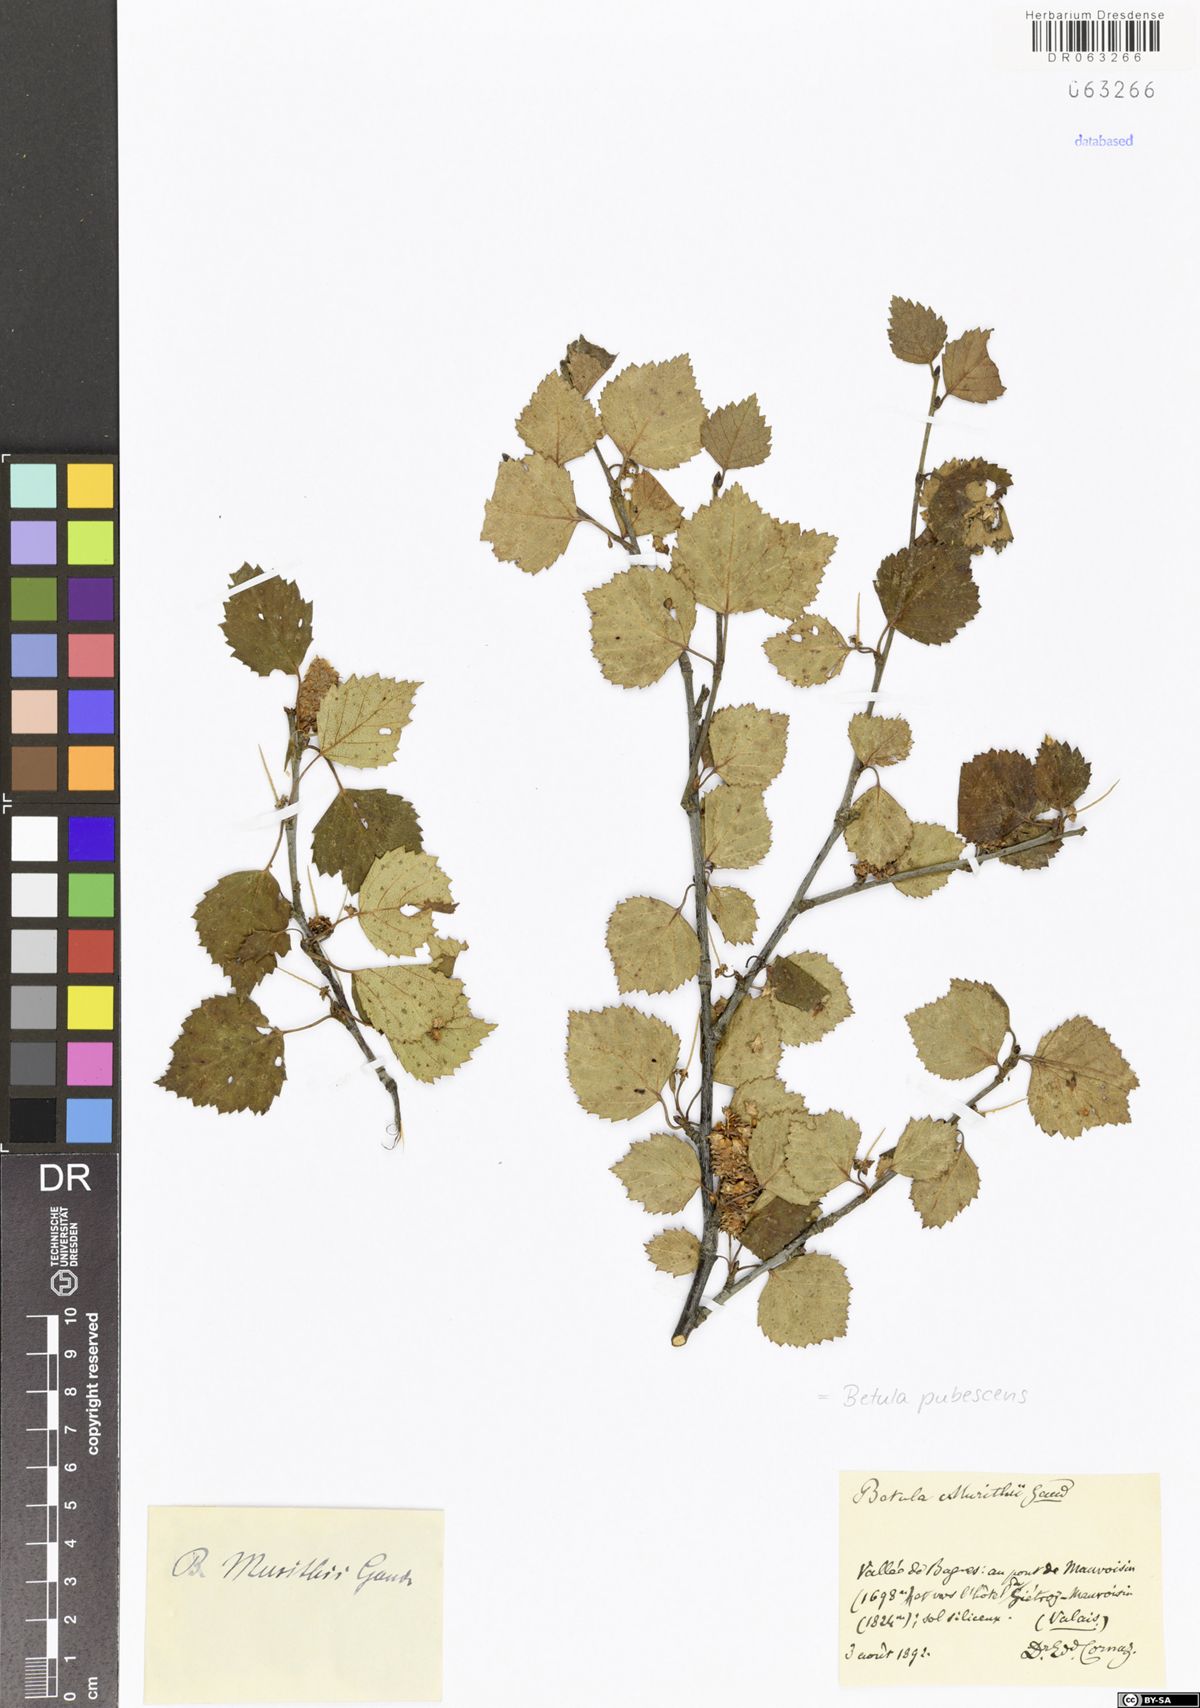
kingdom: Plantae
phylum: Tracheophyta
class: Magnoliopsida
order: Fagales
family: Betulaceae
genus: Betula
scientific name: Betula pubescens
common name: Downy birch
